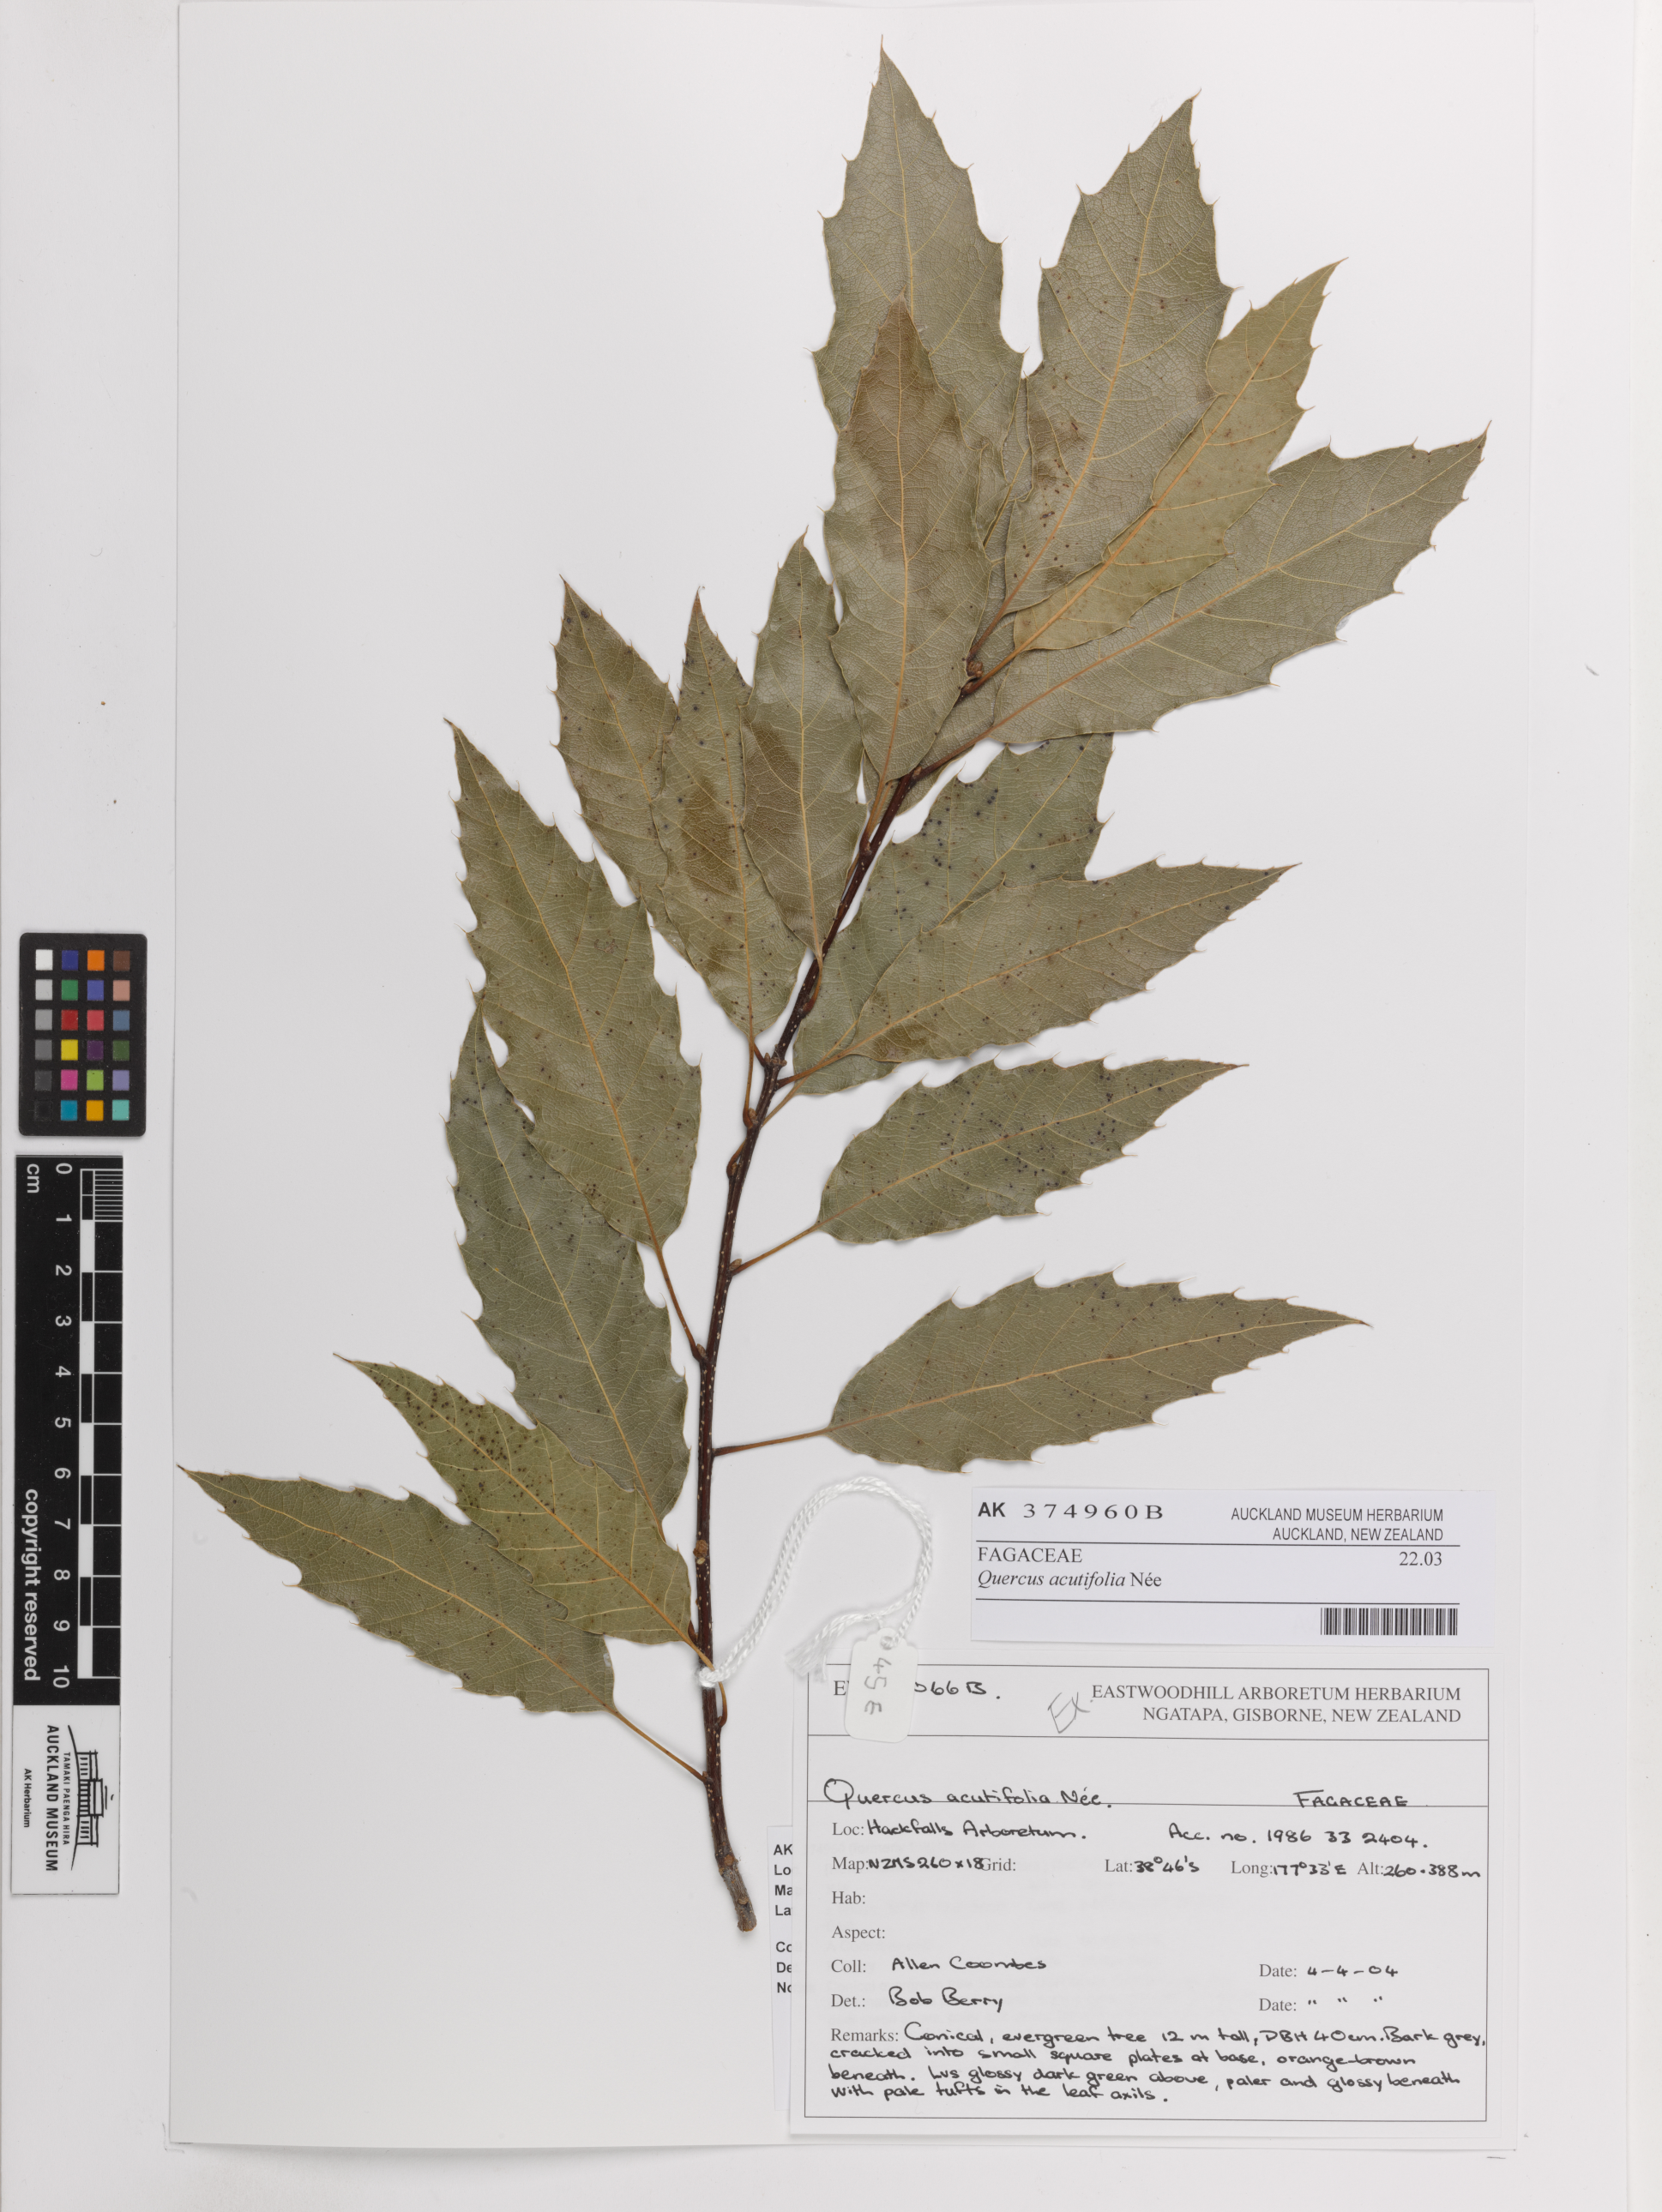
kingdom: Plantae
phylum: Tracheophyta
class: Magnoliopsida
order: Fagales
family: Fagaceae
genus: Quercus
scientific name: Quercus acutifolia
